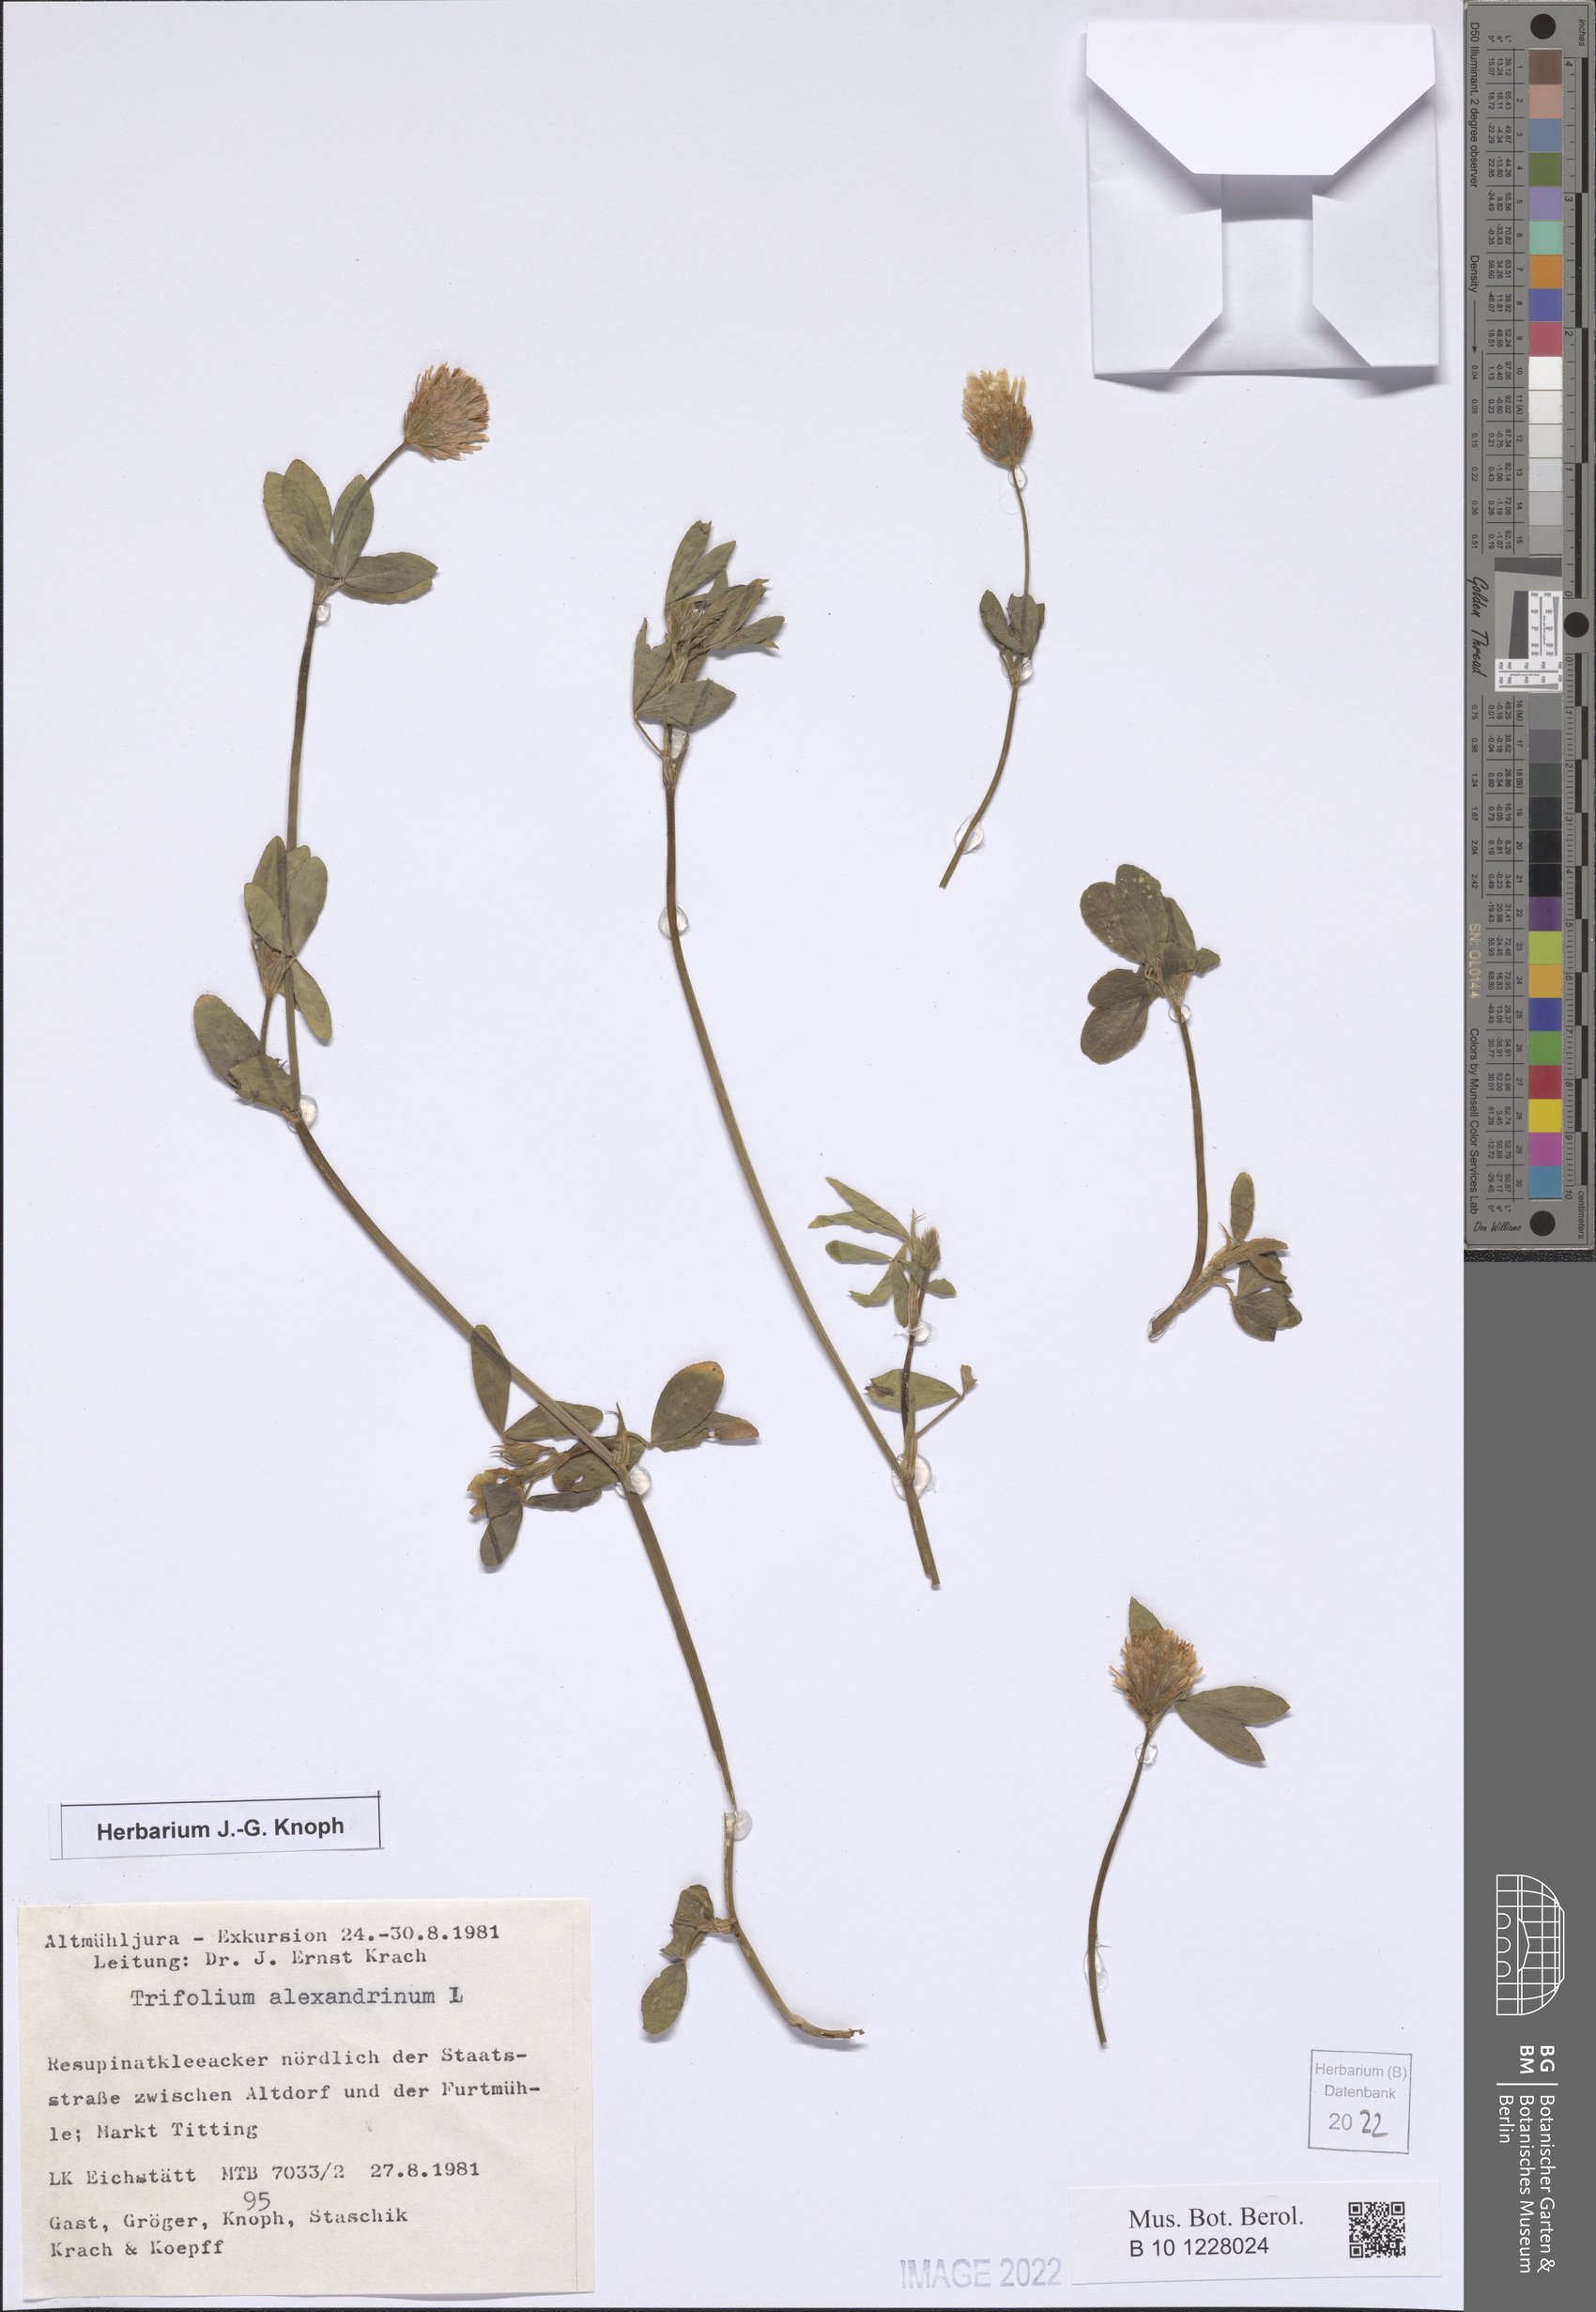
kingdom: Plantae
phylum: Tracheophyta
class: Magnoliopsida
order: Fabales
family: Fabaceae
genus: Trifolium
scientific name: Trifolium alexandrinum
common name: Egyptian clover
